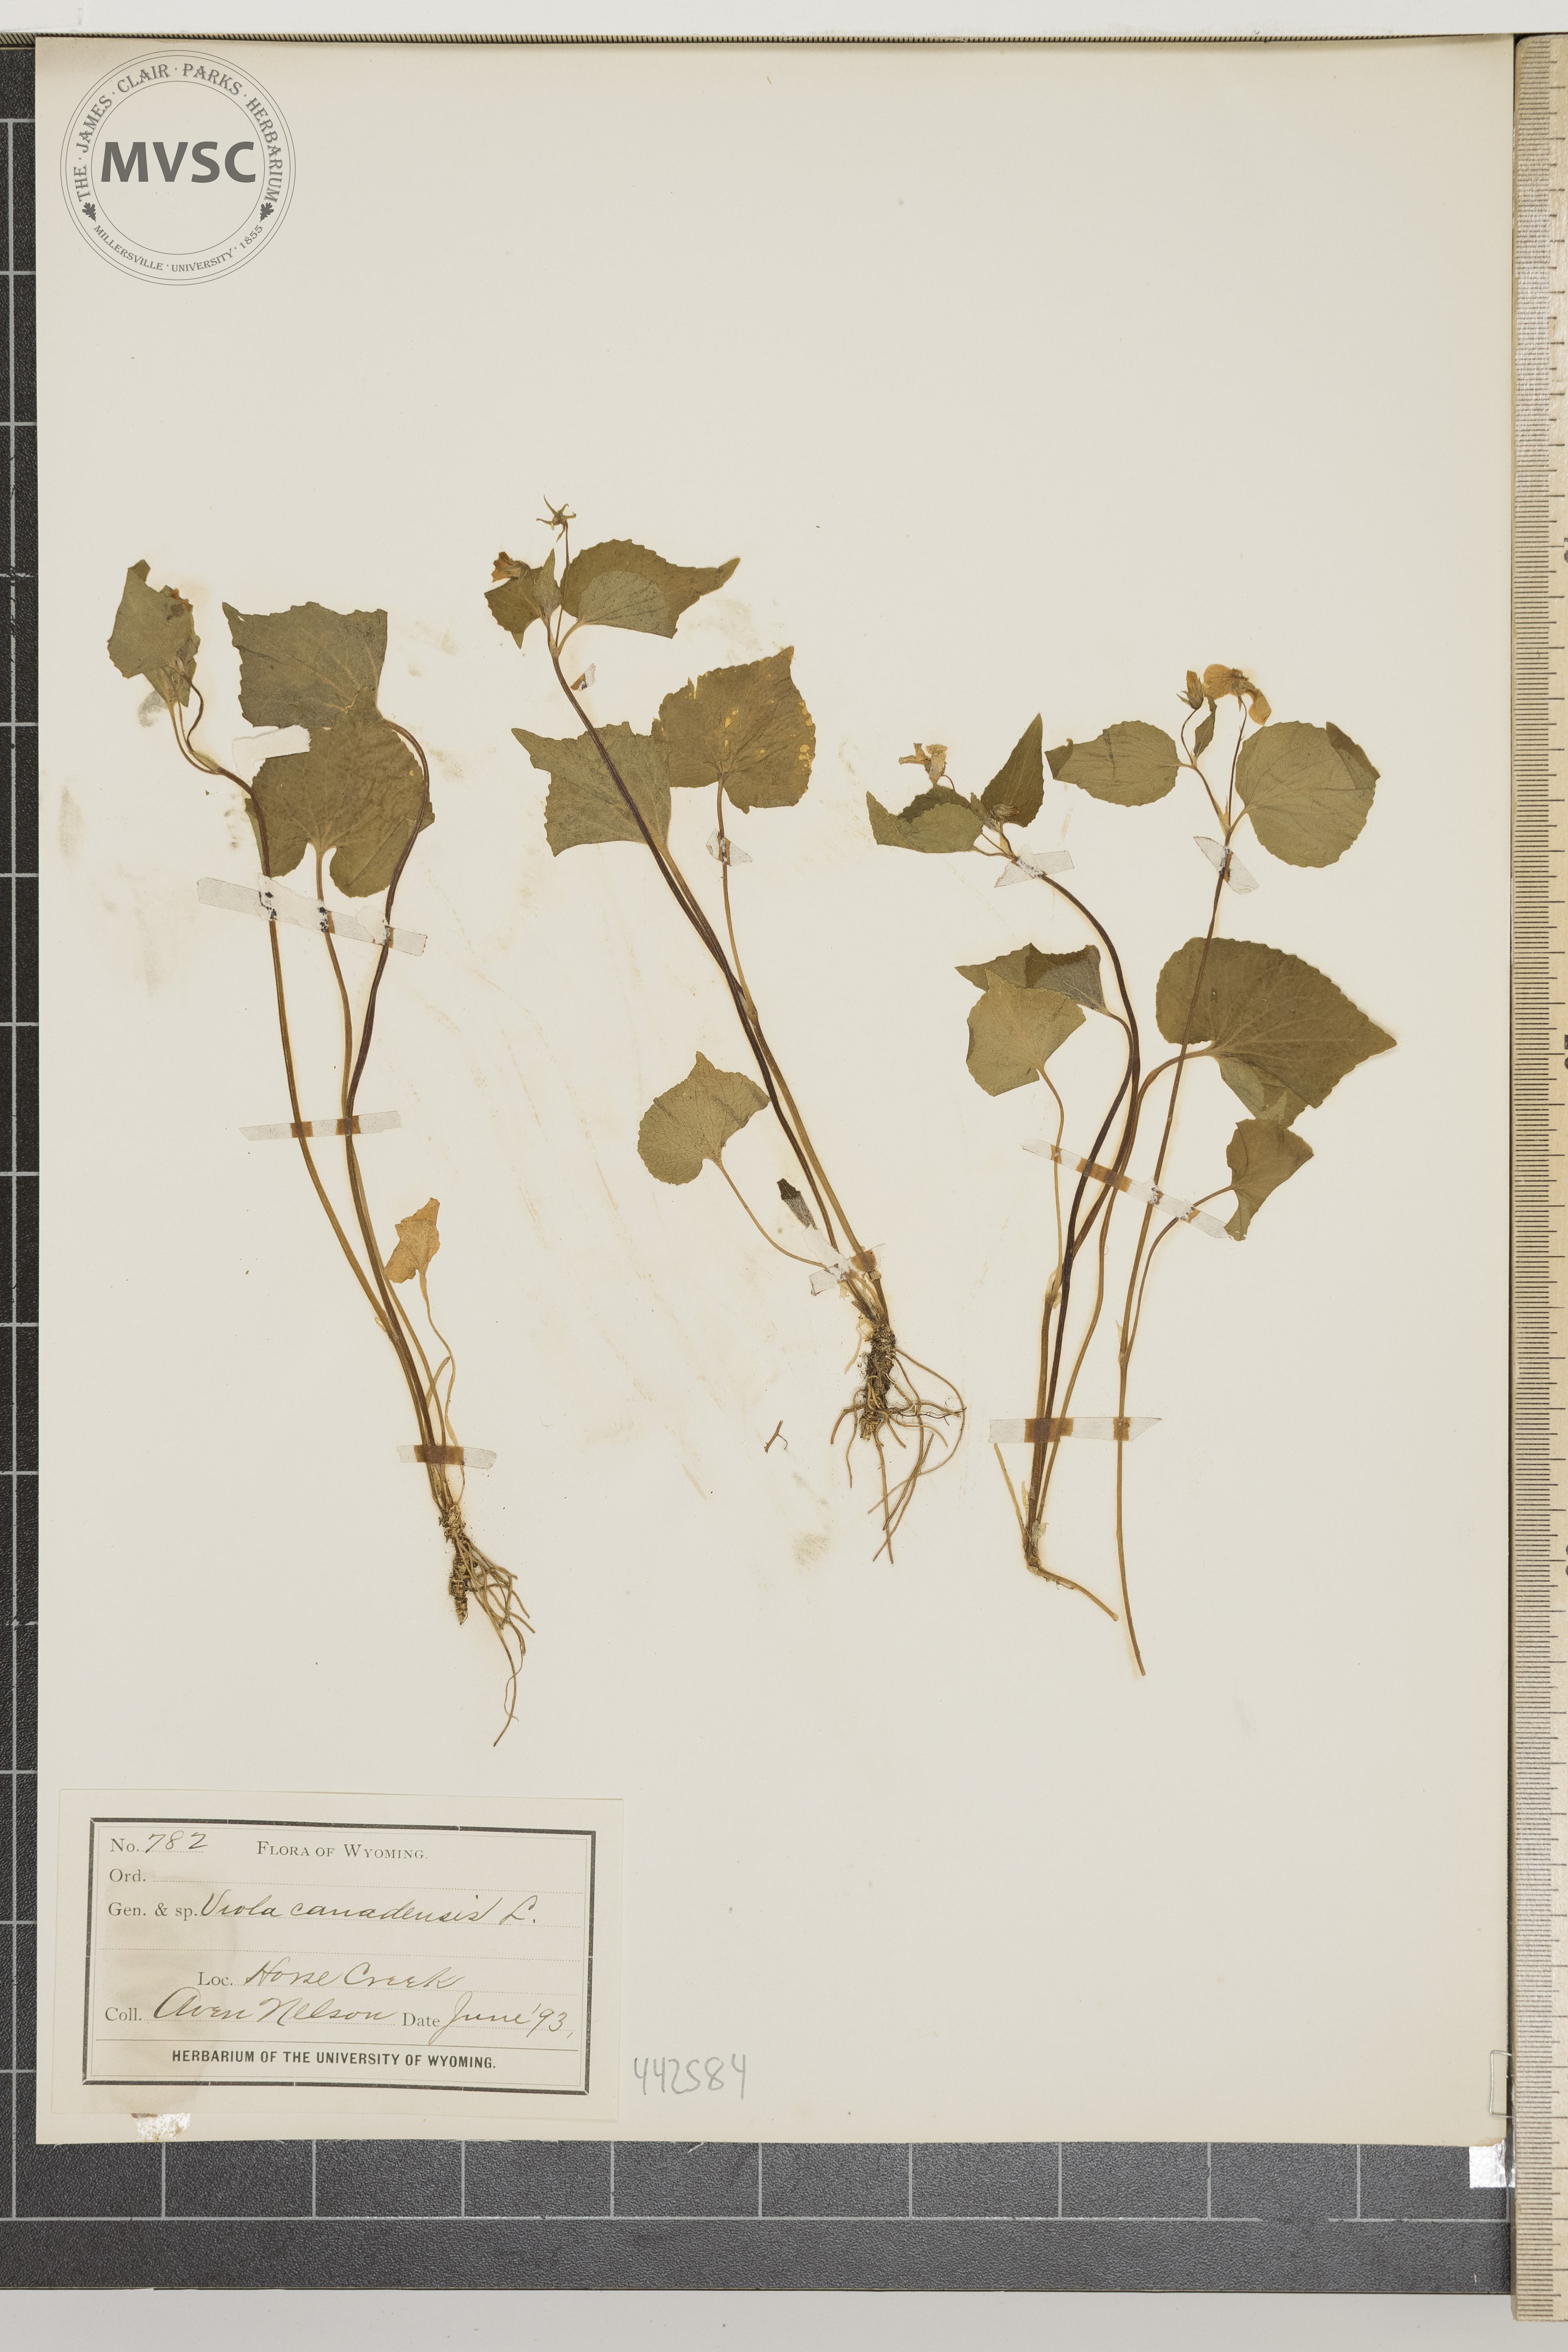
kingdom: Plantae
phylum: Tracheophyta
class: Magnoliopsida
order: Malpighiales
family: Violaceae
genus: Viola
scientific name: Viola canadensis
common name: Canada violet
